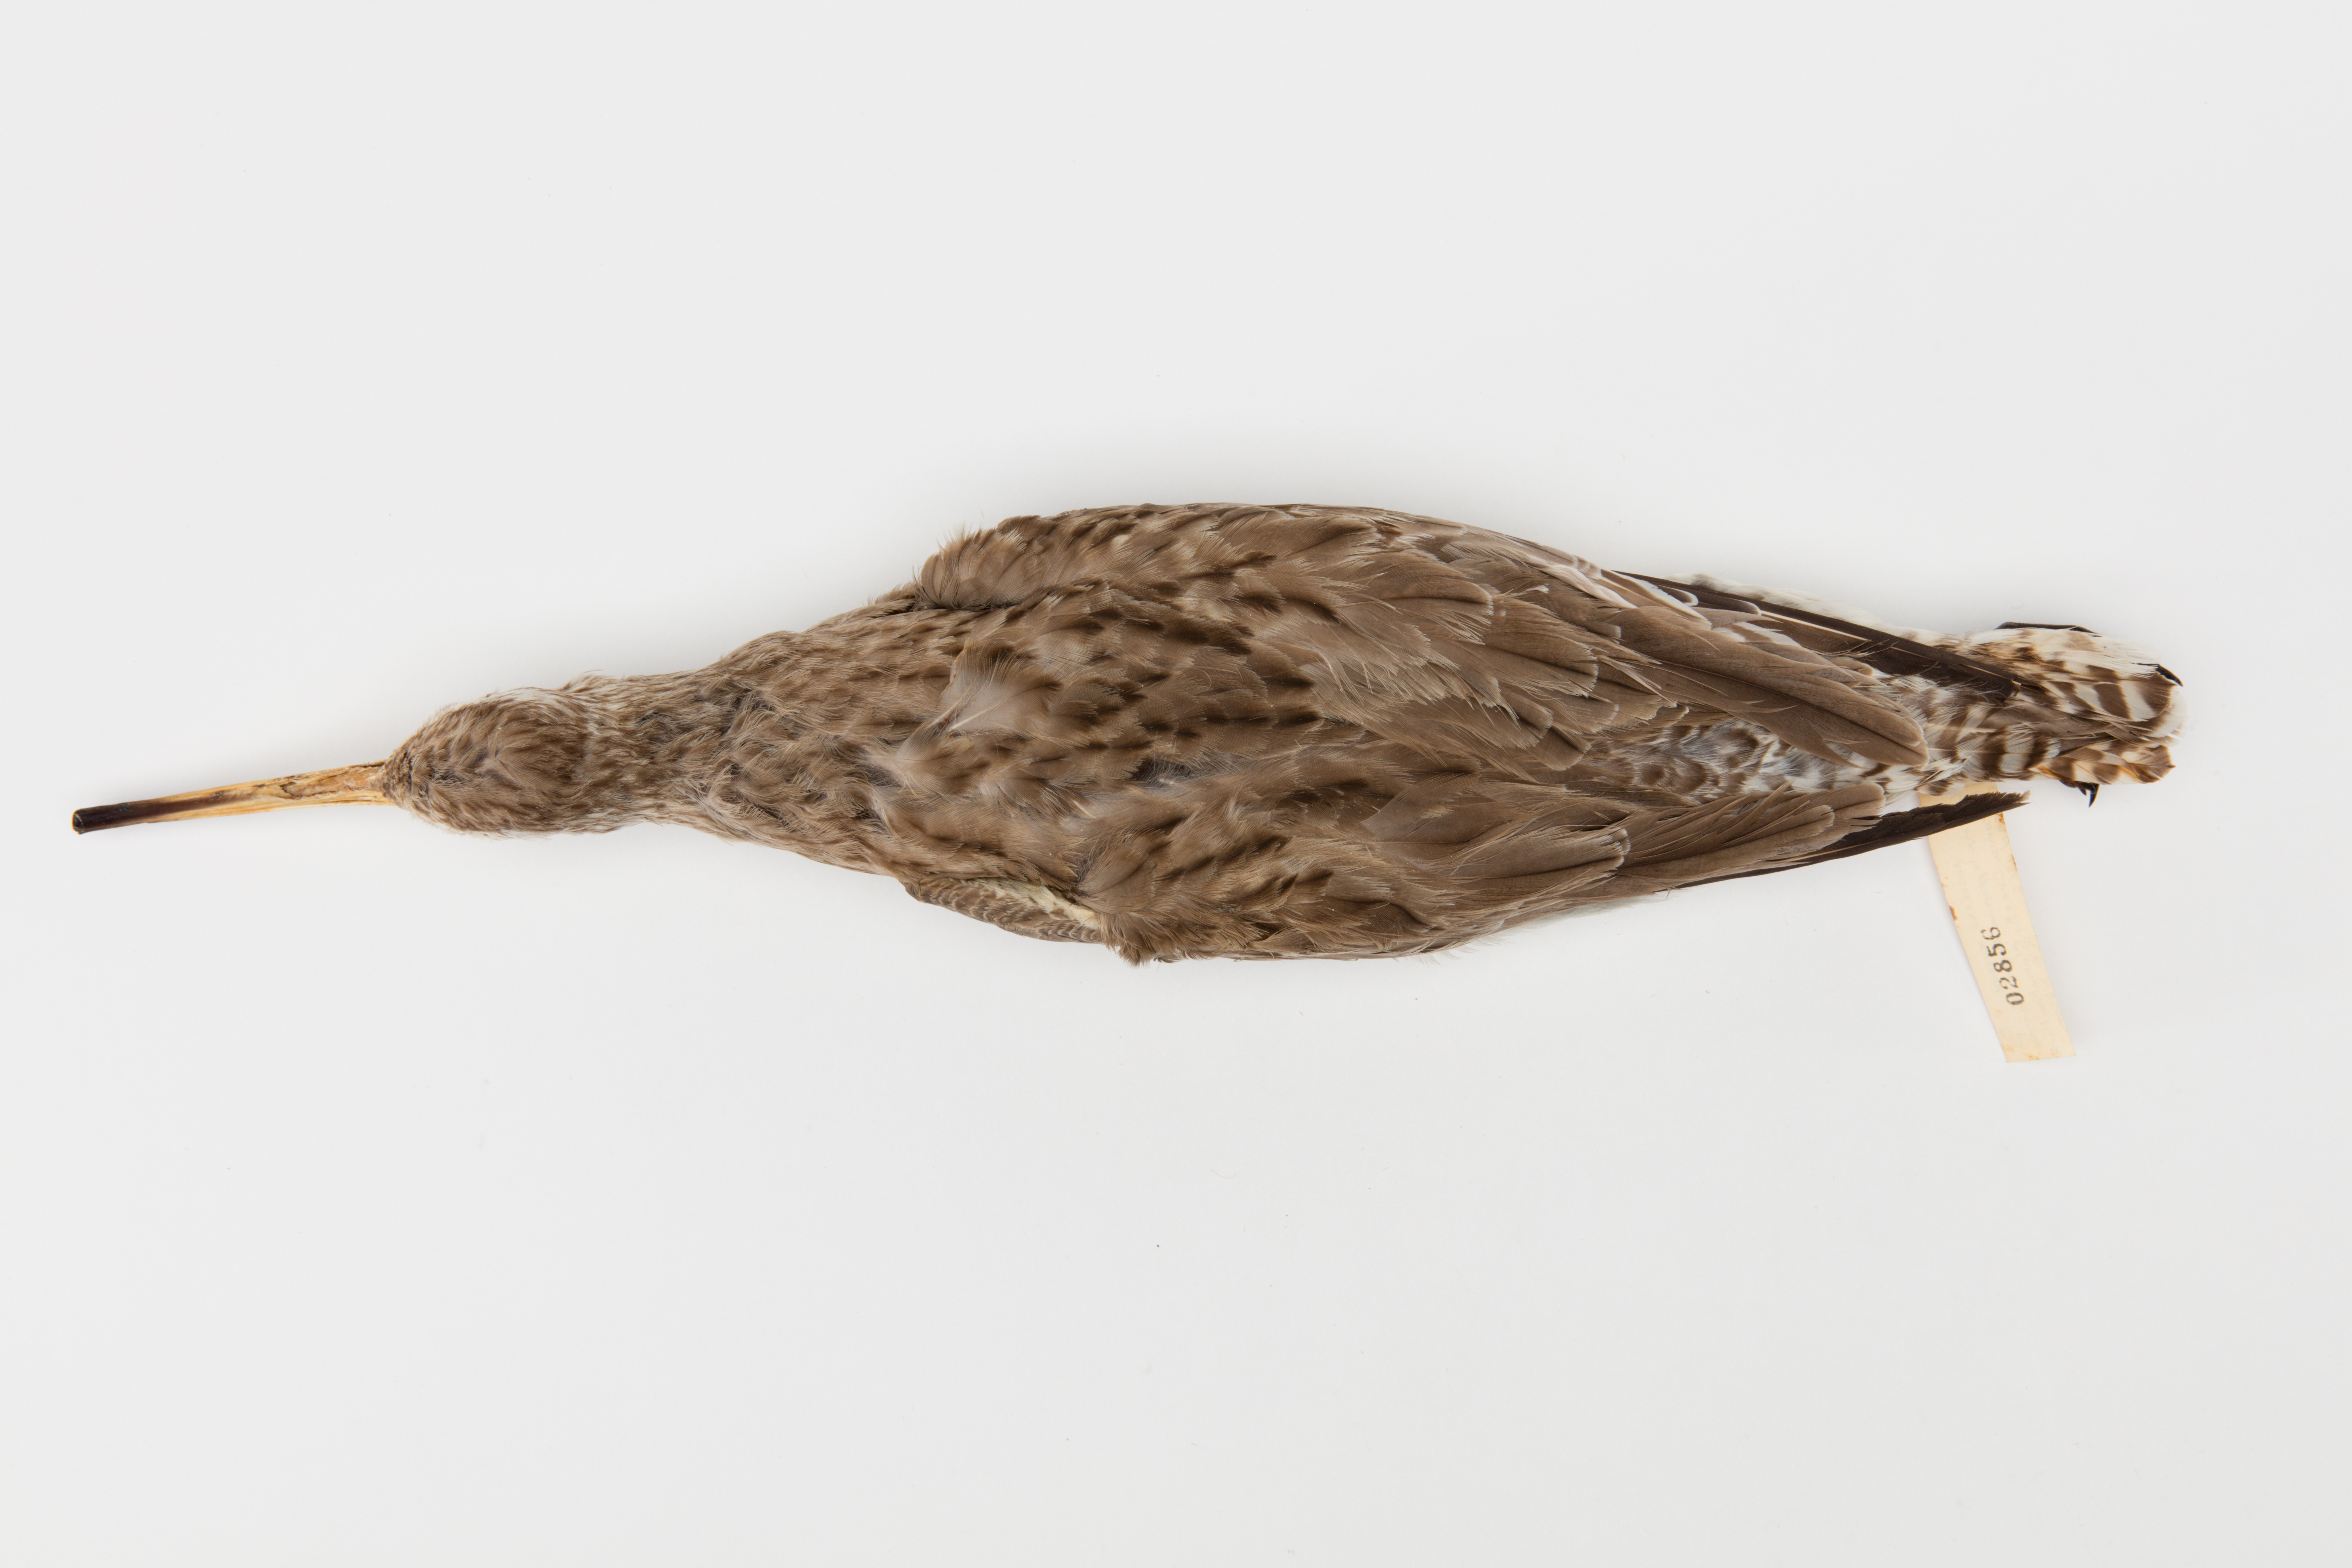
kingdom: Animalia
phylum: Chordata
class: Aves
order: Charadriiformes
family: Scolopacidae
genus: Limosa
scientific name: Limosa lapponica
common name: Bar-tailed godwit
